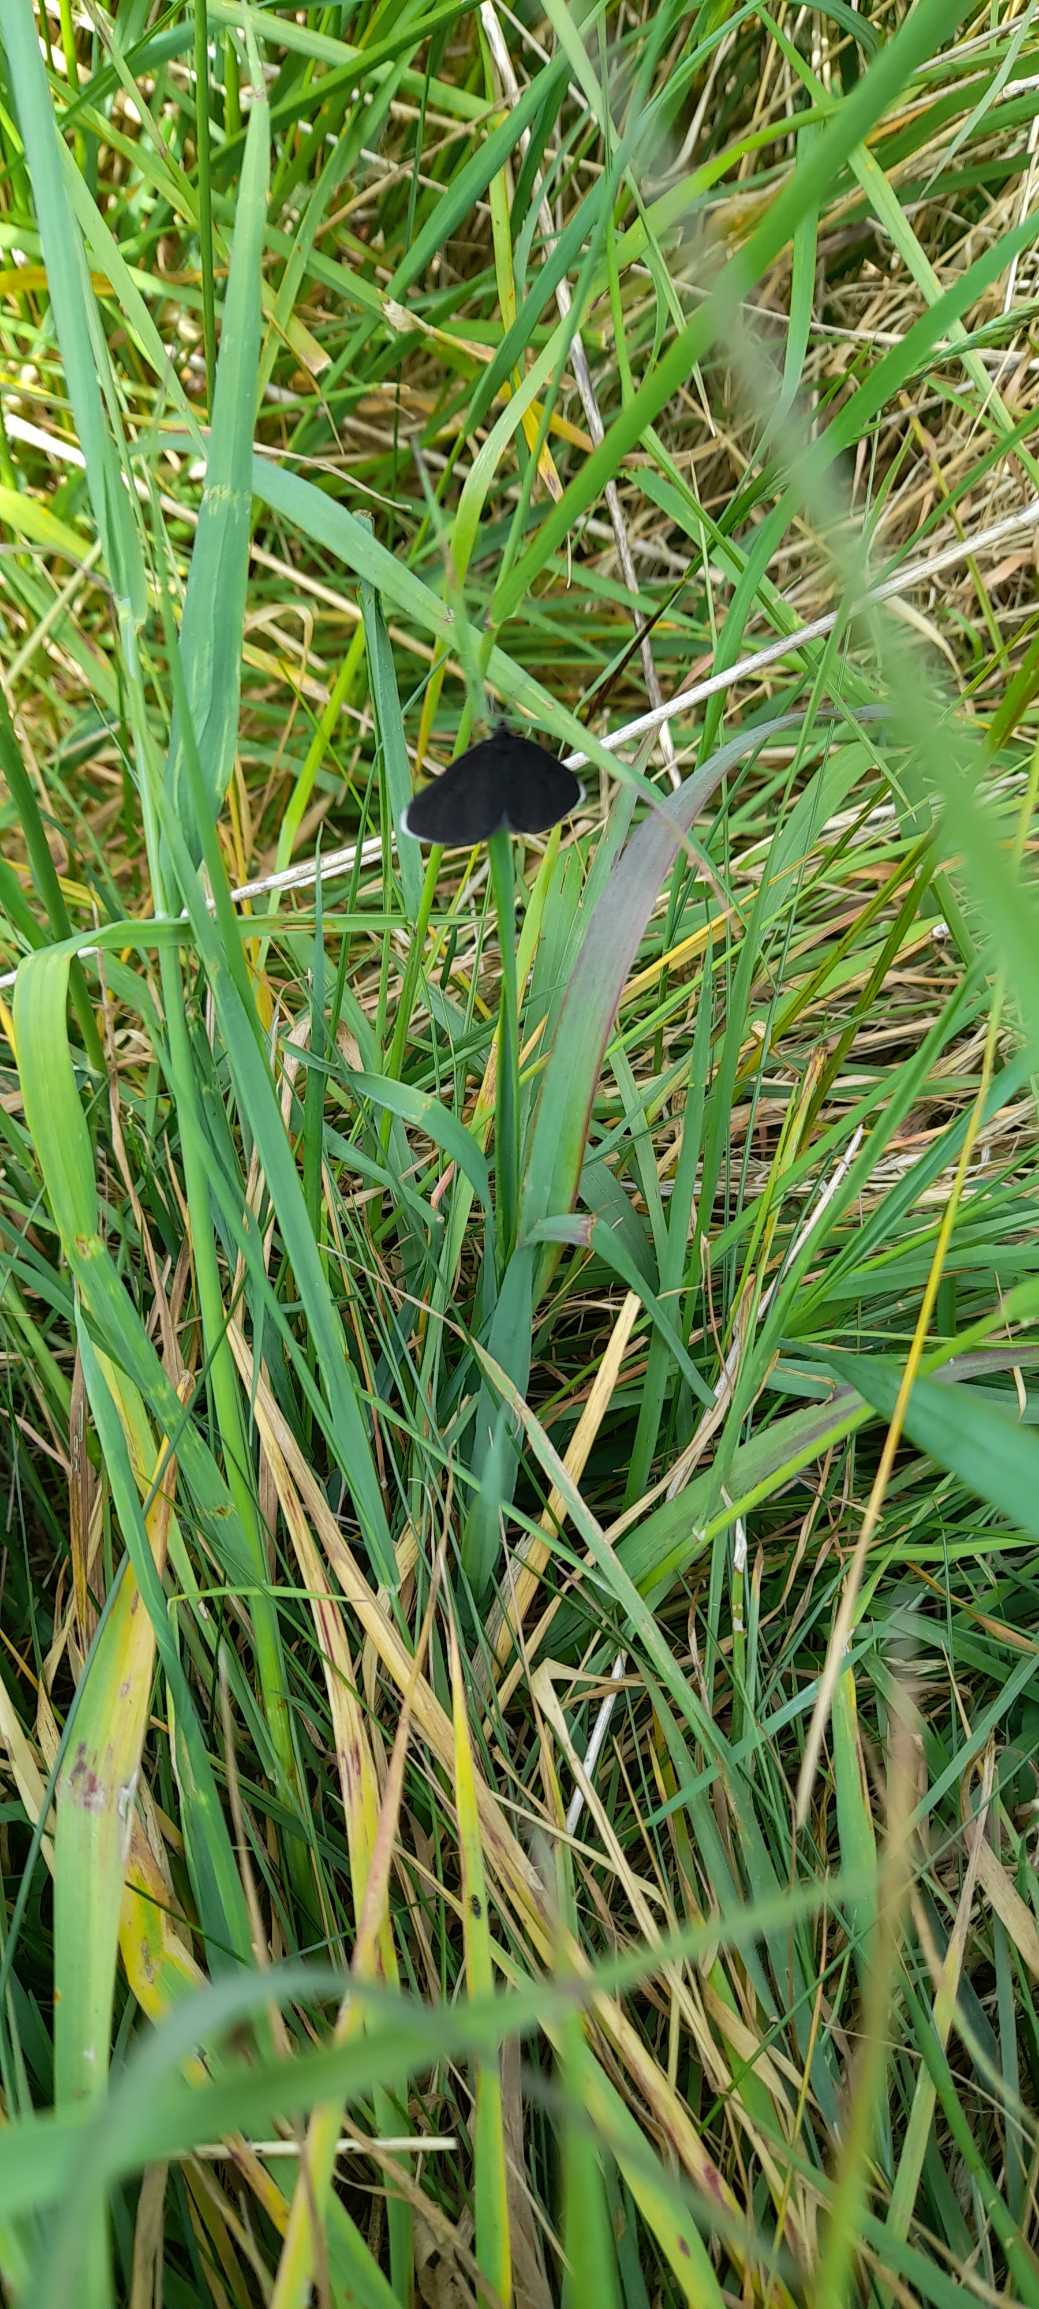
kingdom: Animalia
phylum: Arthropoda
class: Insecta
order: Lepidoptera
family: Geometridae
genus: Odezia
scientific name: Odezia atrata
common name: Sort måler
